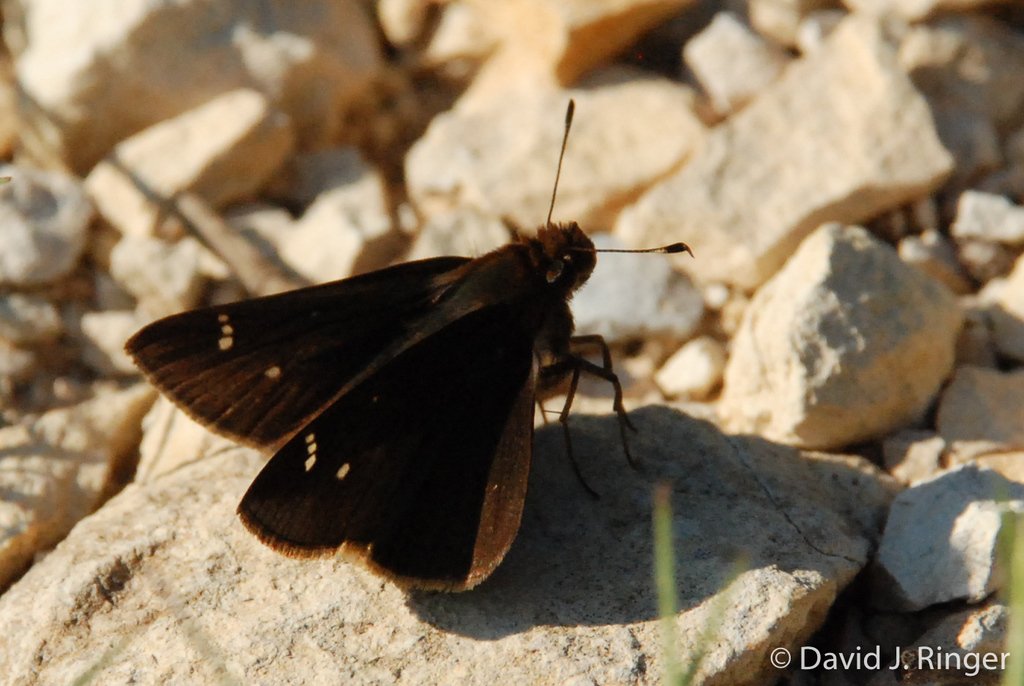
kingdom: Animalia
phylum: Arthropoda
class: Insecta
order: Lepidoptera
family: Hesperiidae
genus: Lerema
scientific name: Lerema accius
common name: Clouded Skipper
